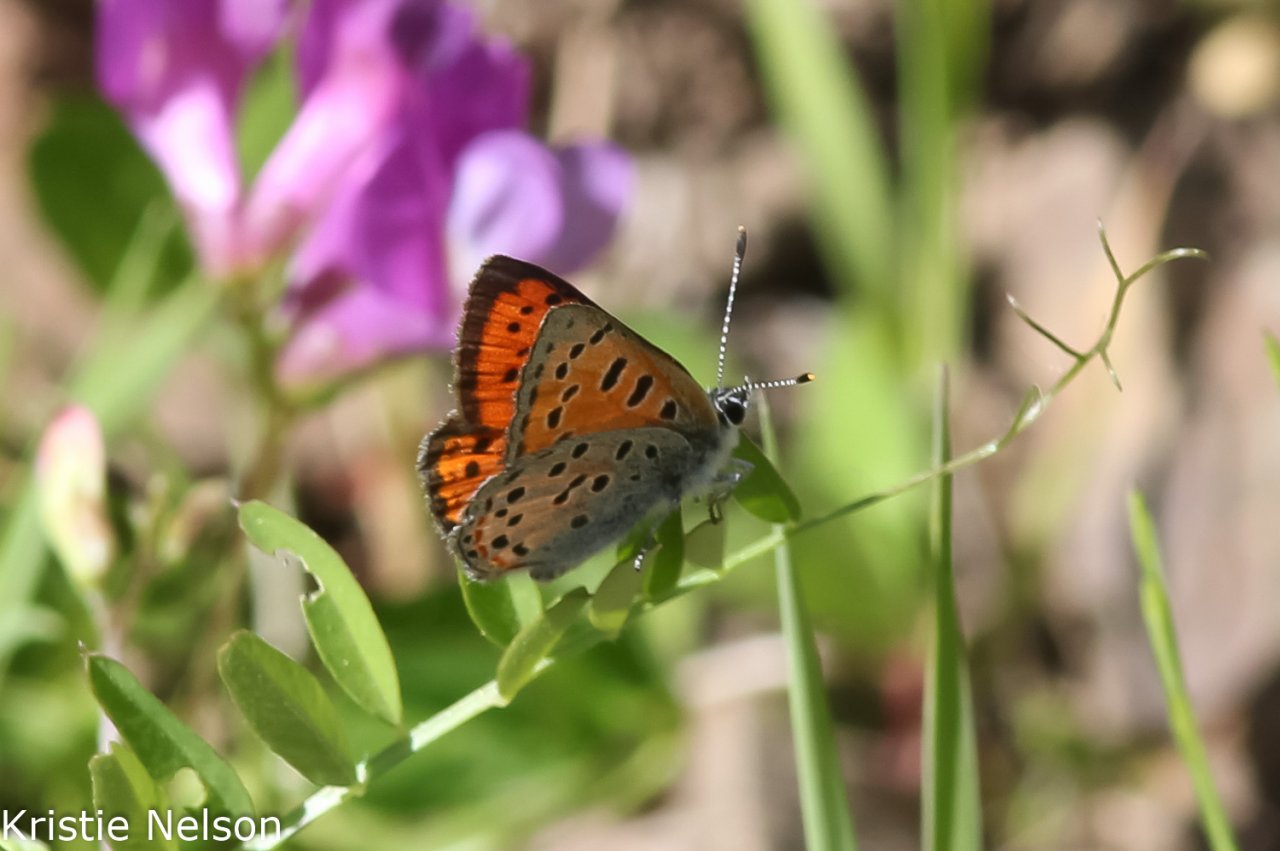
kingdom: Animalia
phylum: Arthropoda
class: Insecta
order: Lepidoptera
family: Lycaenidae
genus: Lycaena
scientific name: Lycaena cupreus
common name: Lustrous Copper
